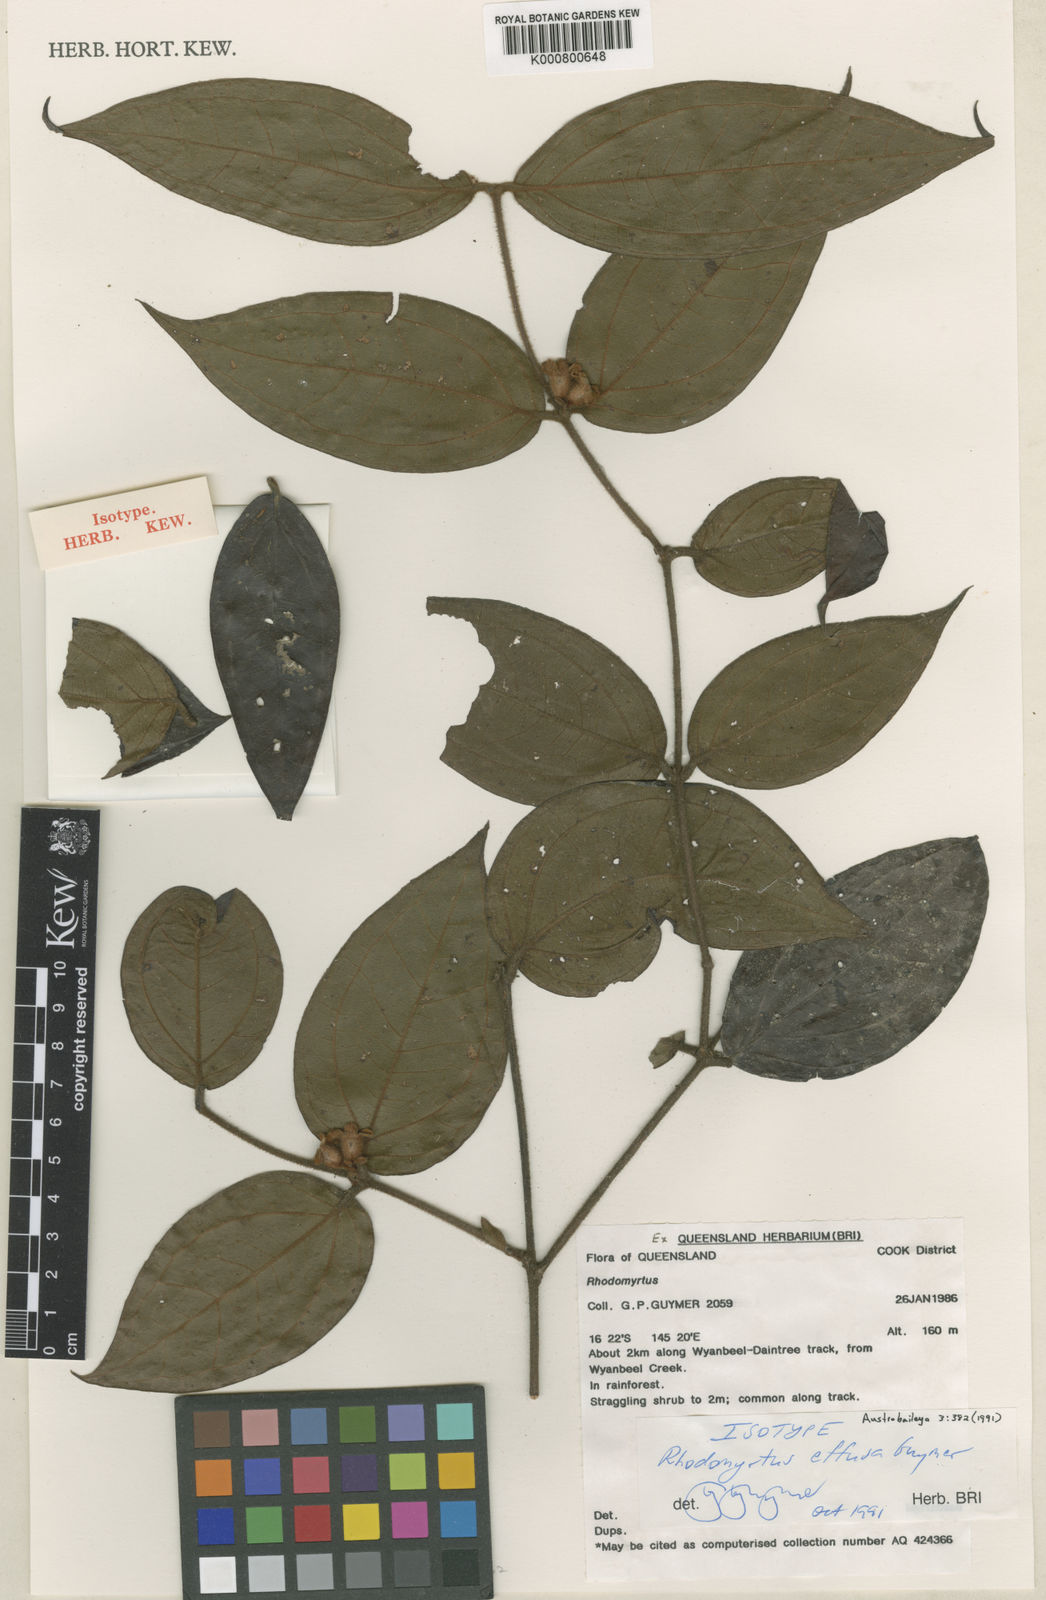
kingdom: Plantae
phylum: Tracheophyta
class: Magnoliopsida
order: Myrtales
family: Myrtaceae
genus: Rhodomyrtus
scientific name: Rhodomyrtus effusa
